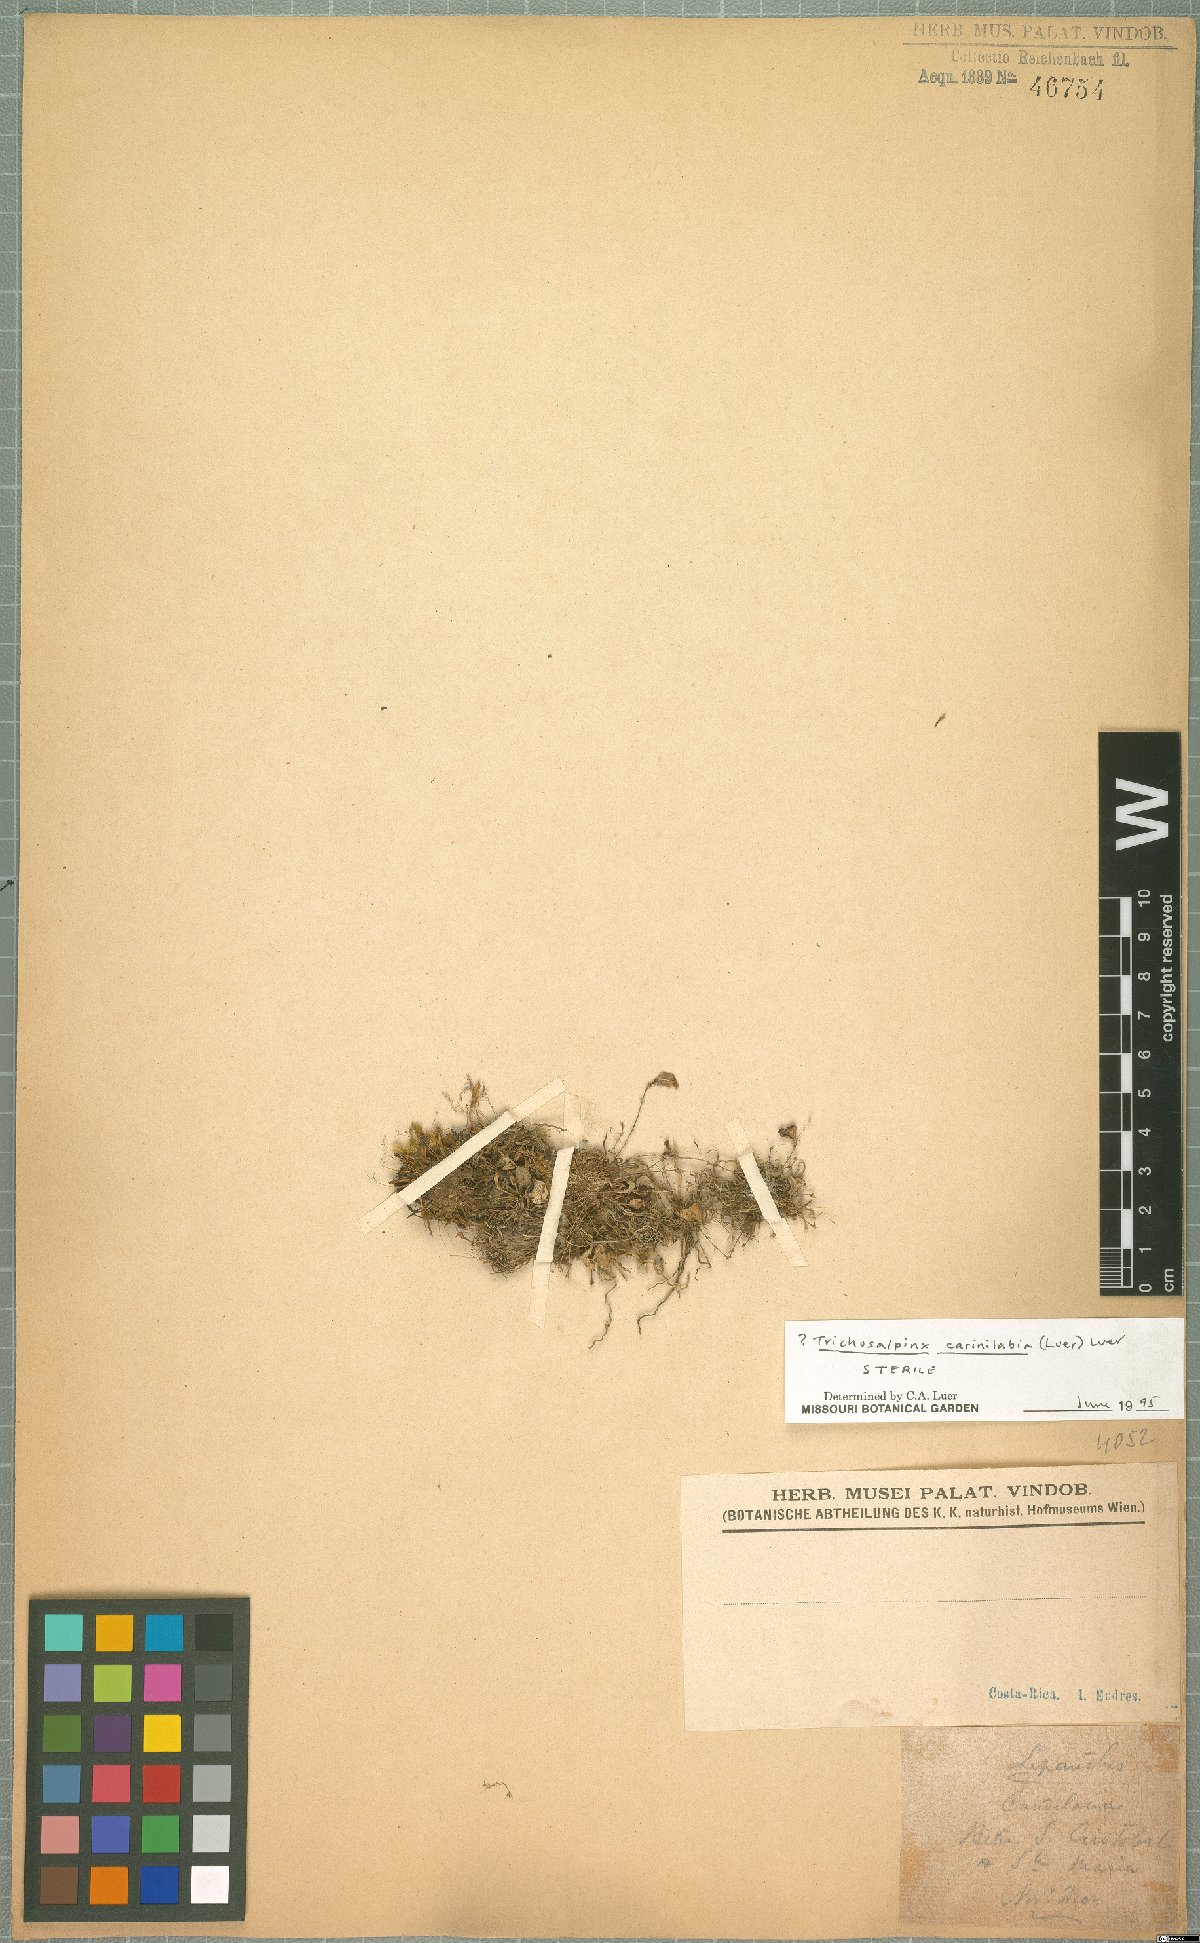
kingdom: Plantae
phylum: Tracheophyta
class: Liliopsida
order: Asparagales
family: Orchidaceae
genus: Trichosalpinx
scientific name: Trichosalpinx carinilabia
